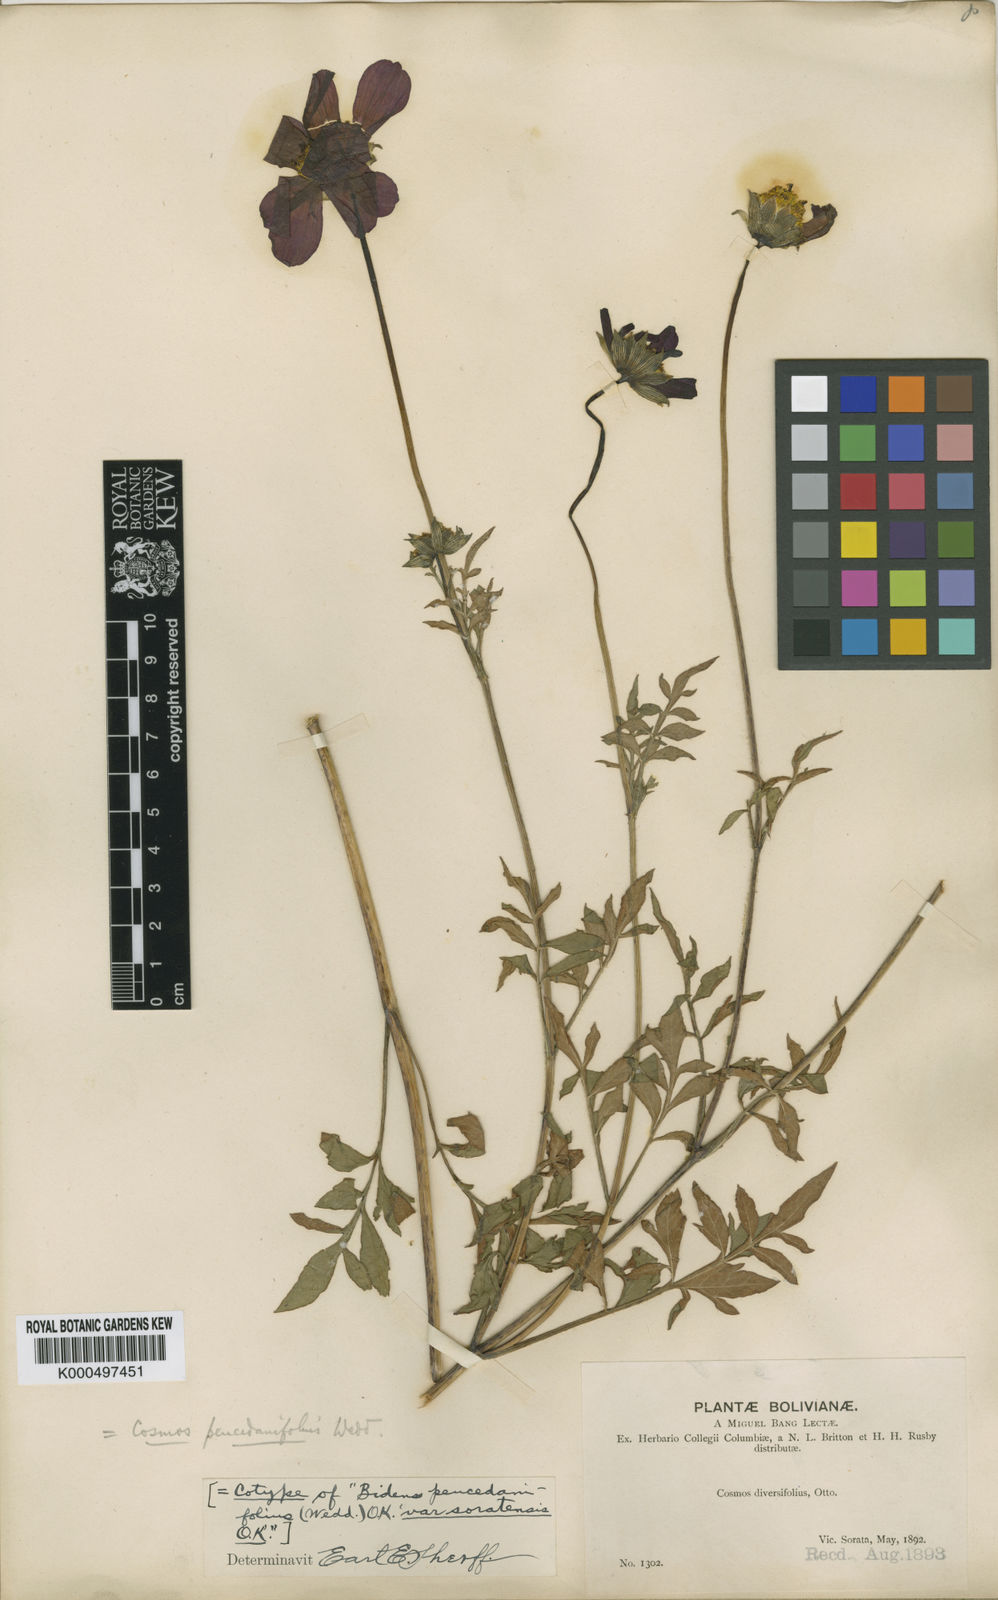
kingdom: Plantae
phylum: Tracheophyta
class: Magnoliopsida
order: Asterales
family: Asteraceae
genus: Cosmos
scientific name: Cosmos peucedanifolius
